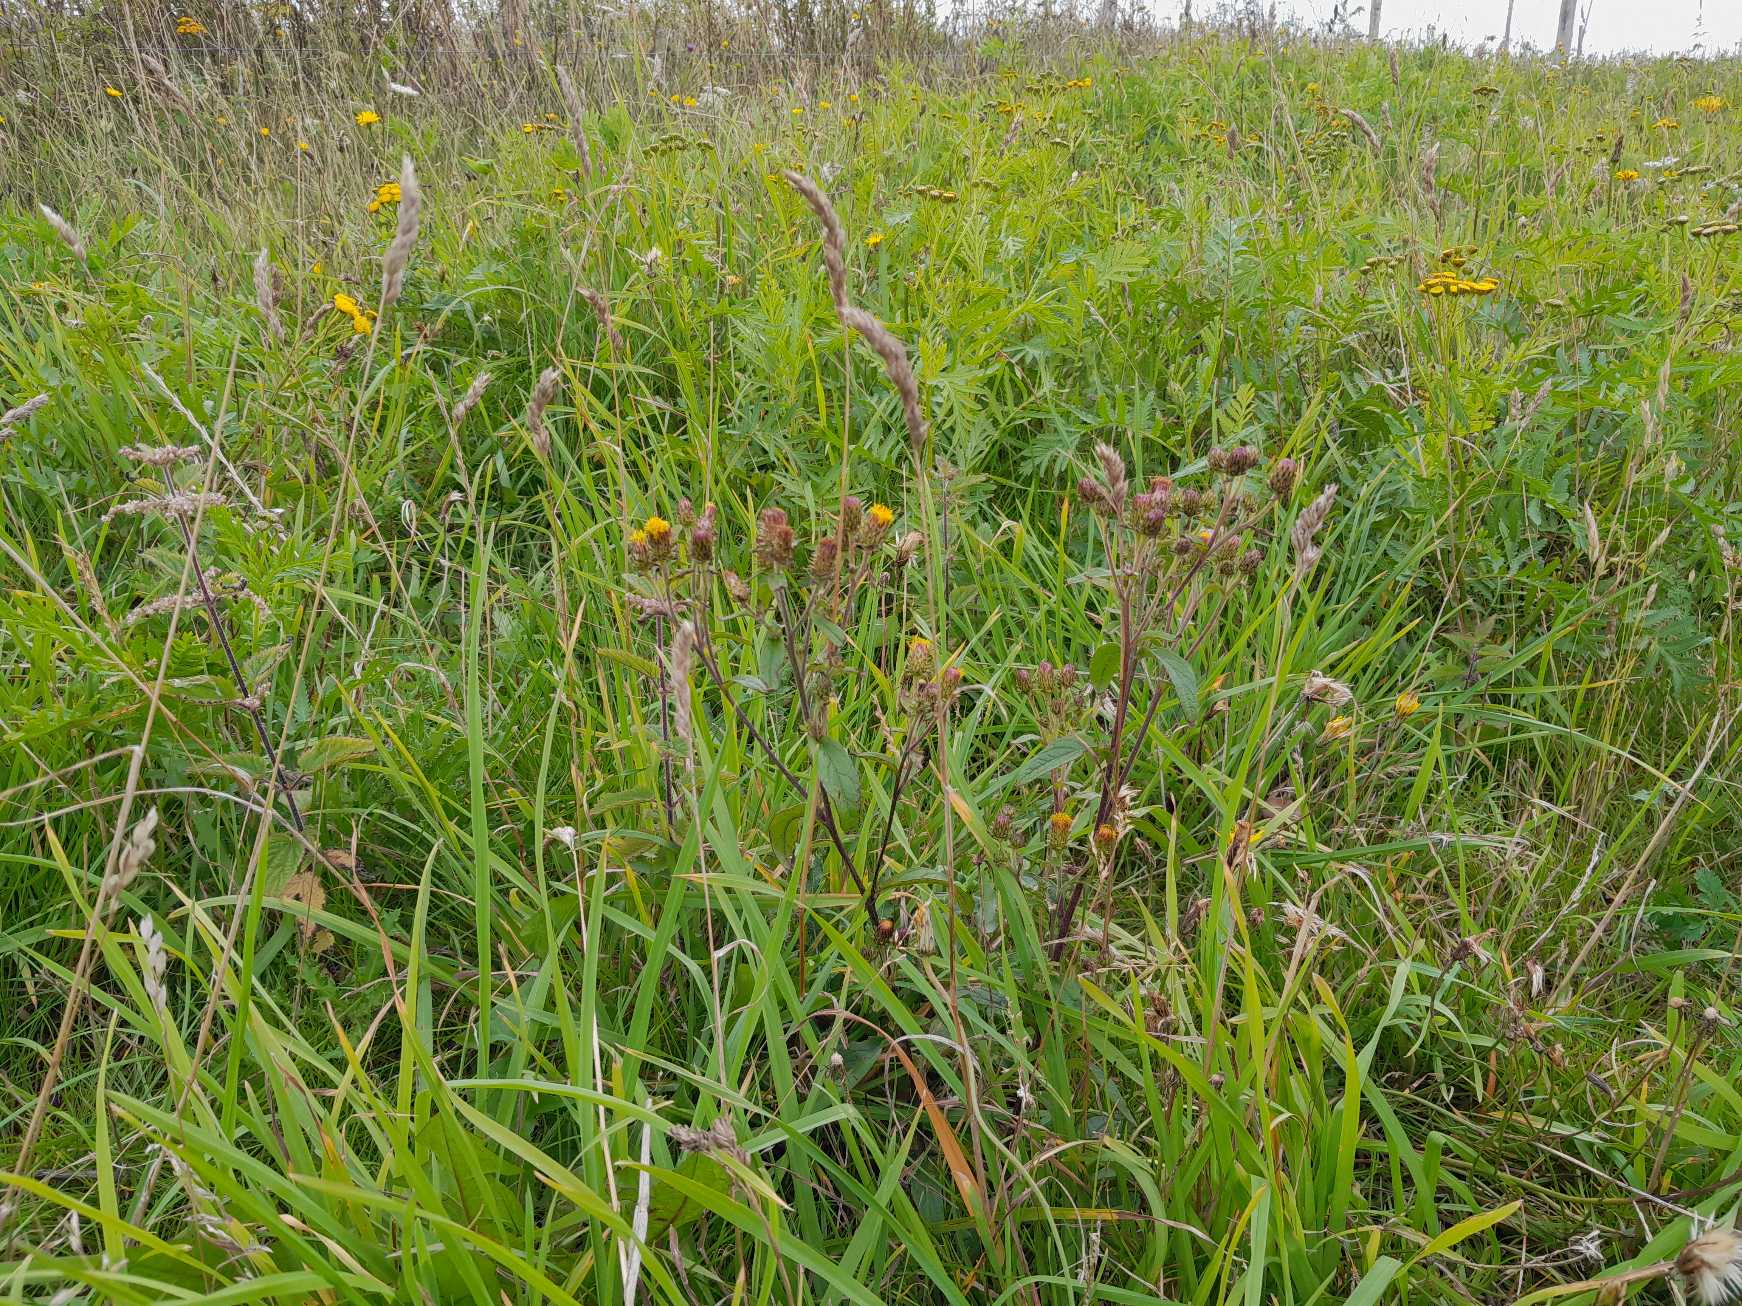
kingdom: Plantae
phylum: Tracheophyta
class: Magnoliopsida
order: Asterales
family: Asteraceae
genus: Pentanema
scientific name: Pentanema squarrosum
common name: Trekløft-alant
